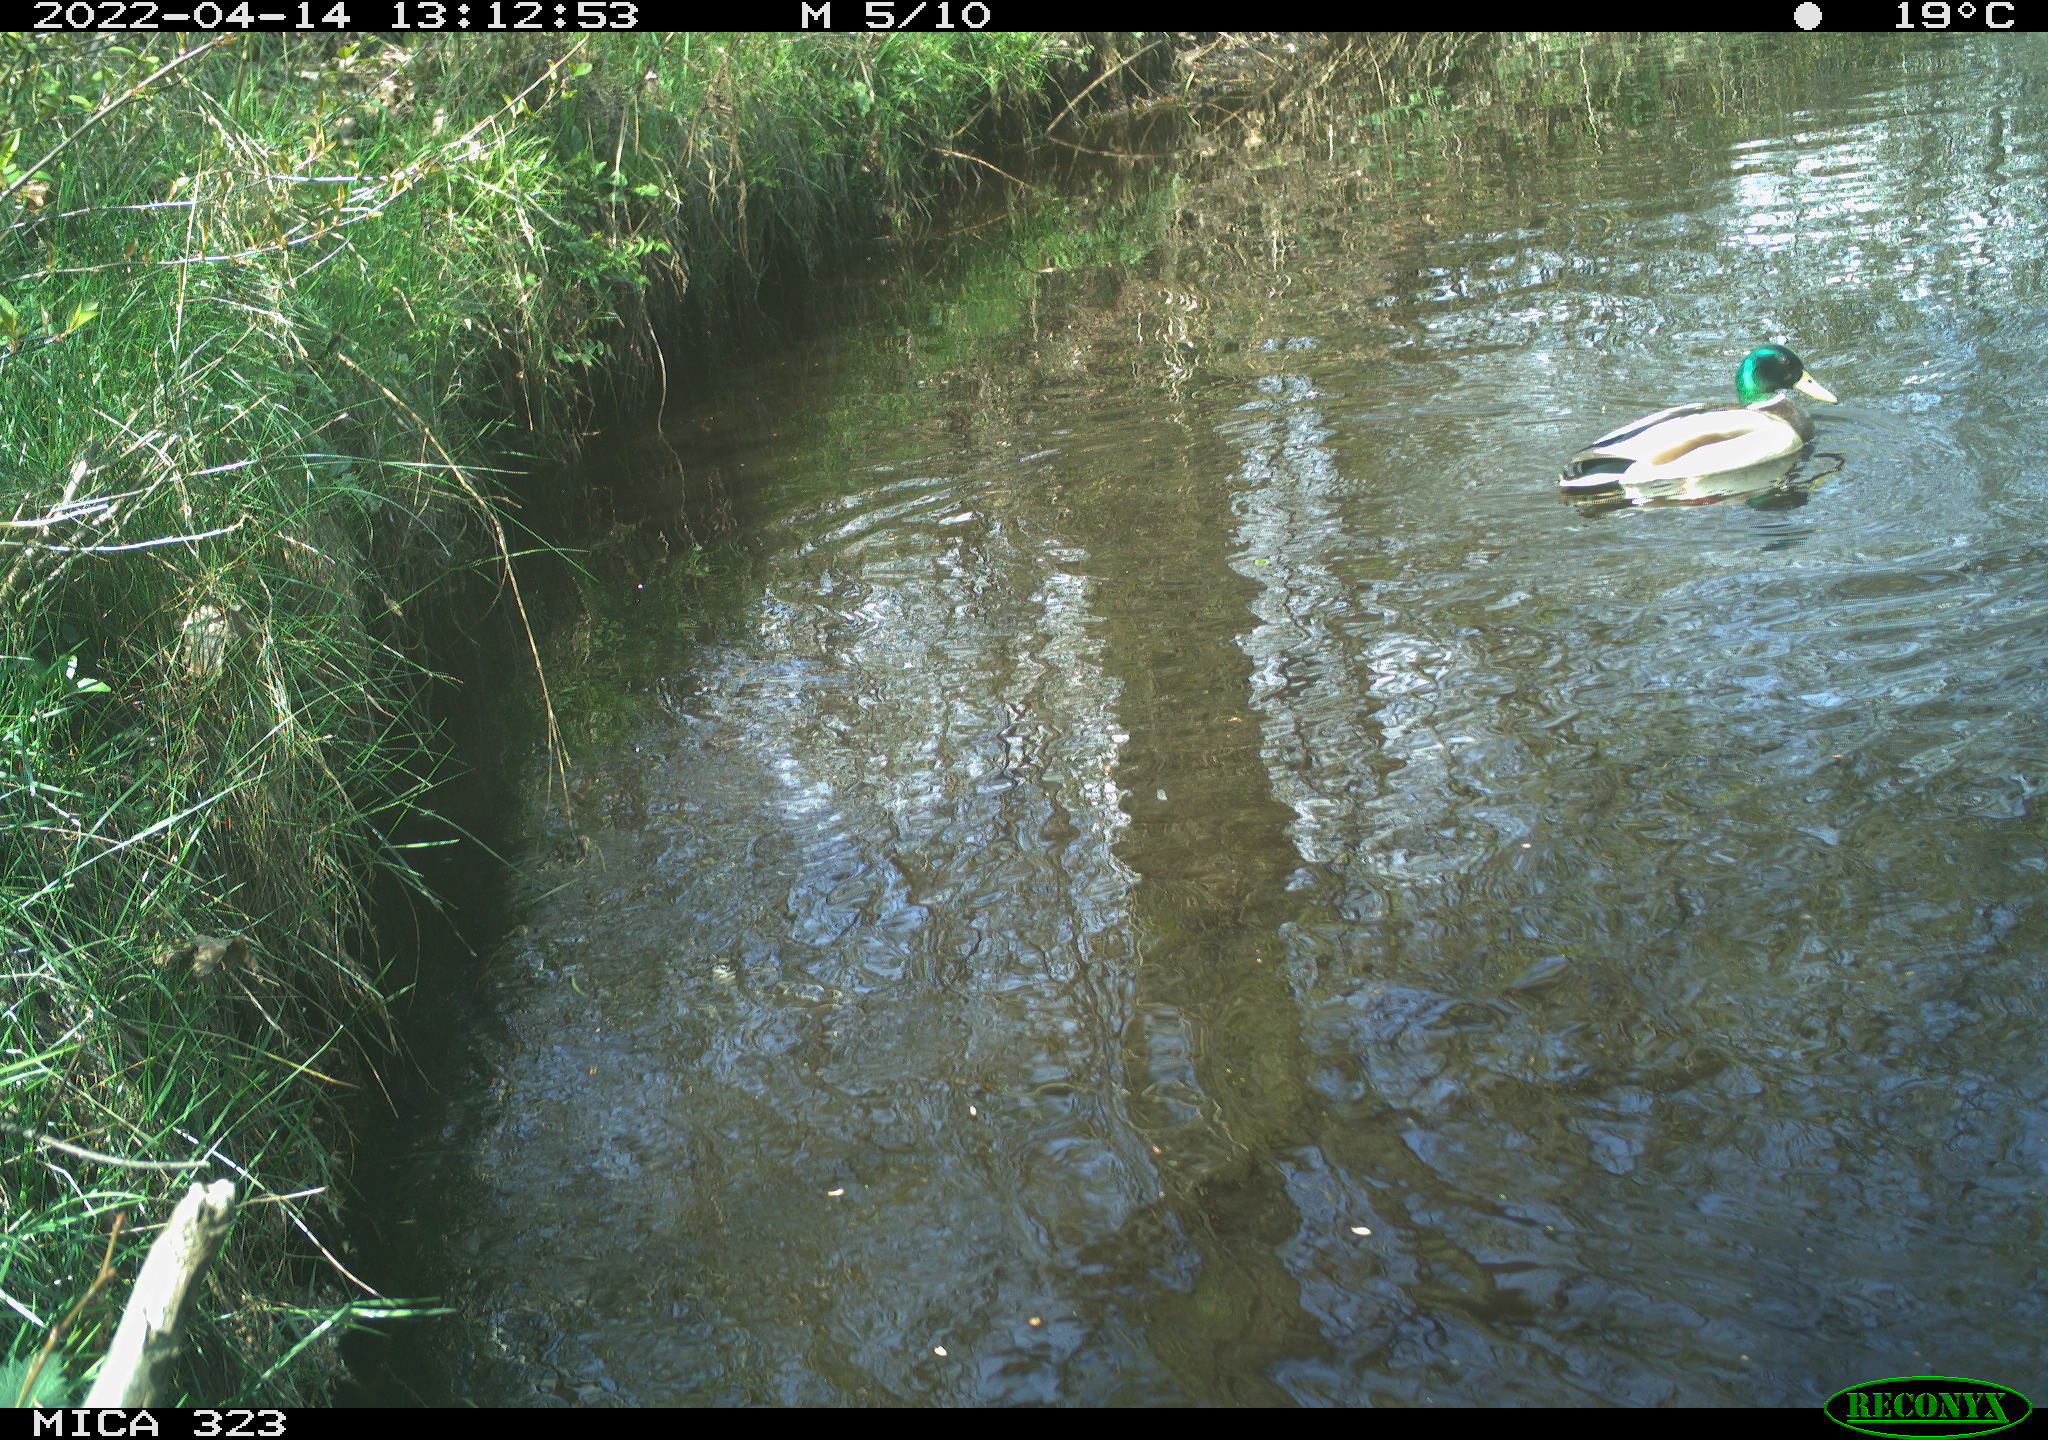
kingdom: Animalia
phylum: Chordata
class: Aves
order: Anseriformes
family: Anatidae
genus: Anas
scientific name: Anas platyrhynchos
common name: Mallard
